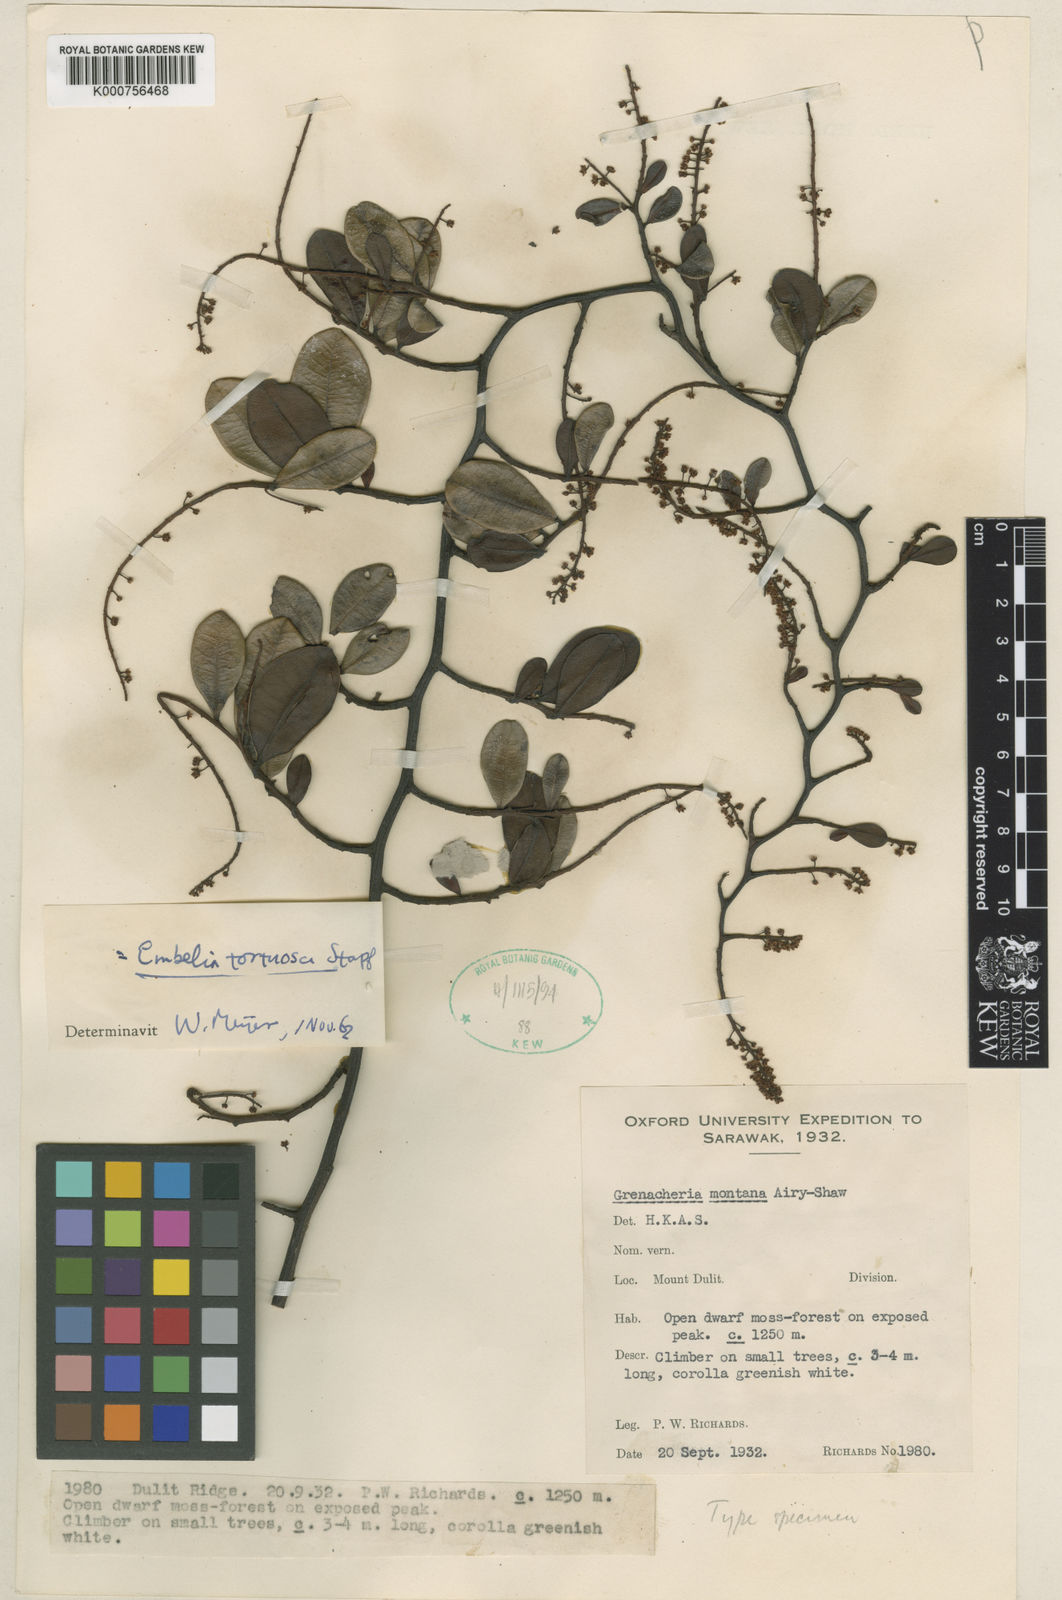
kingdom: Plantae
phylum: Tracheophyta
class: Magnoliopsida
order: Ericales
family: Primulaceae
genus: Embelia
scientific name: Embelia tortuosa
